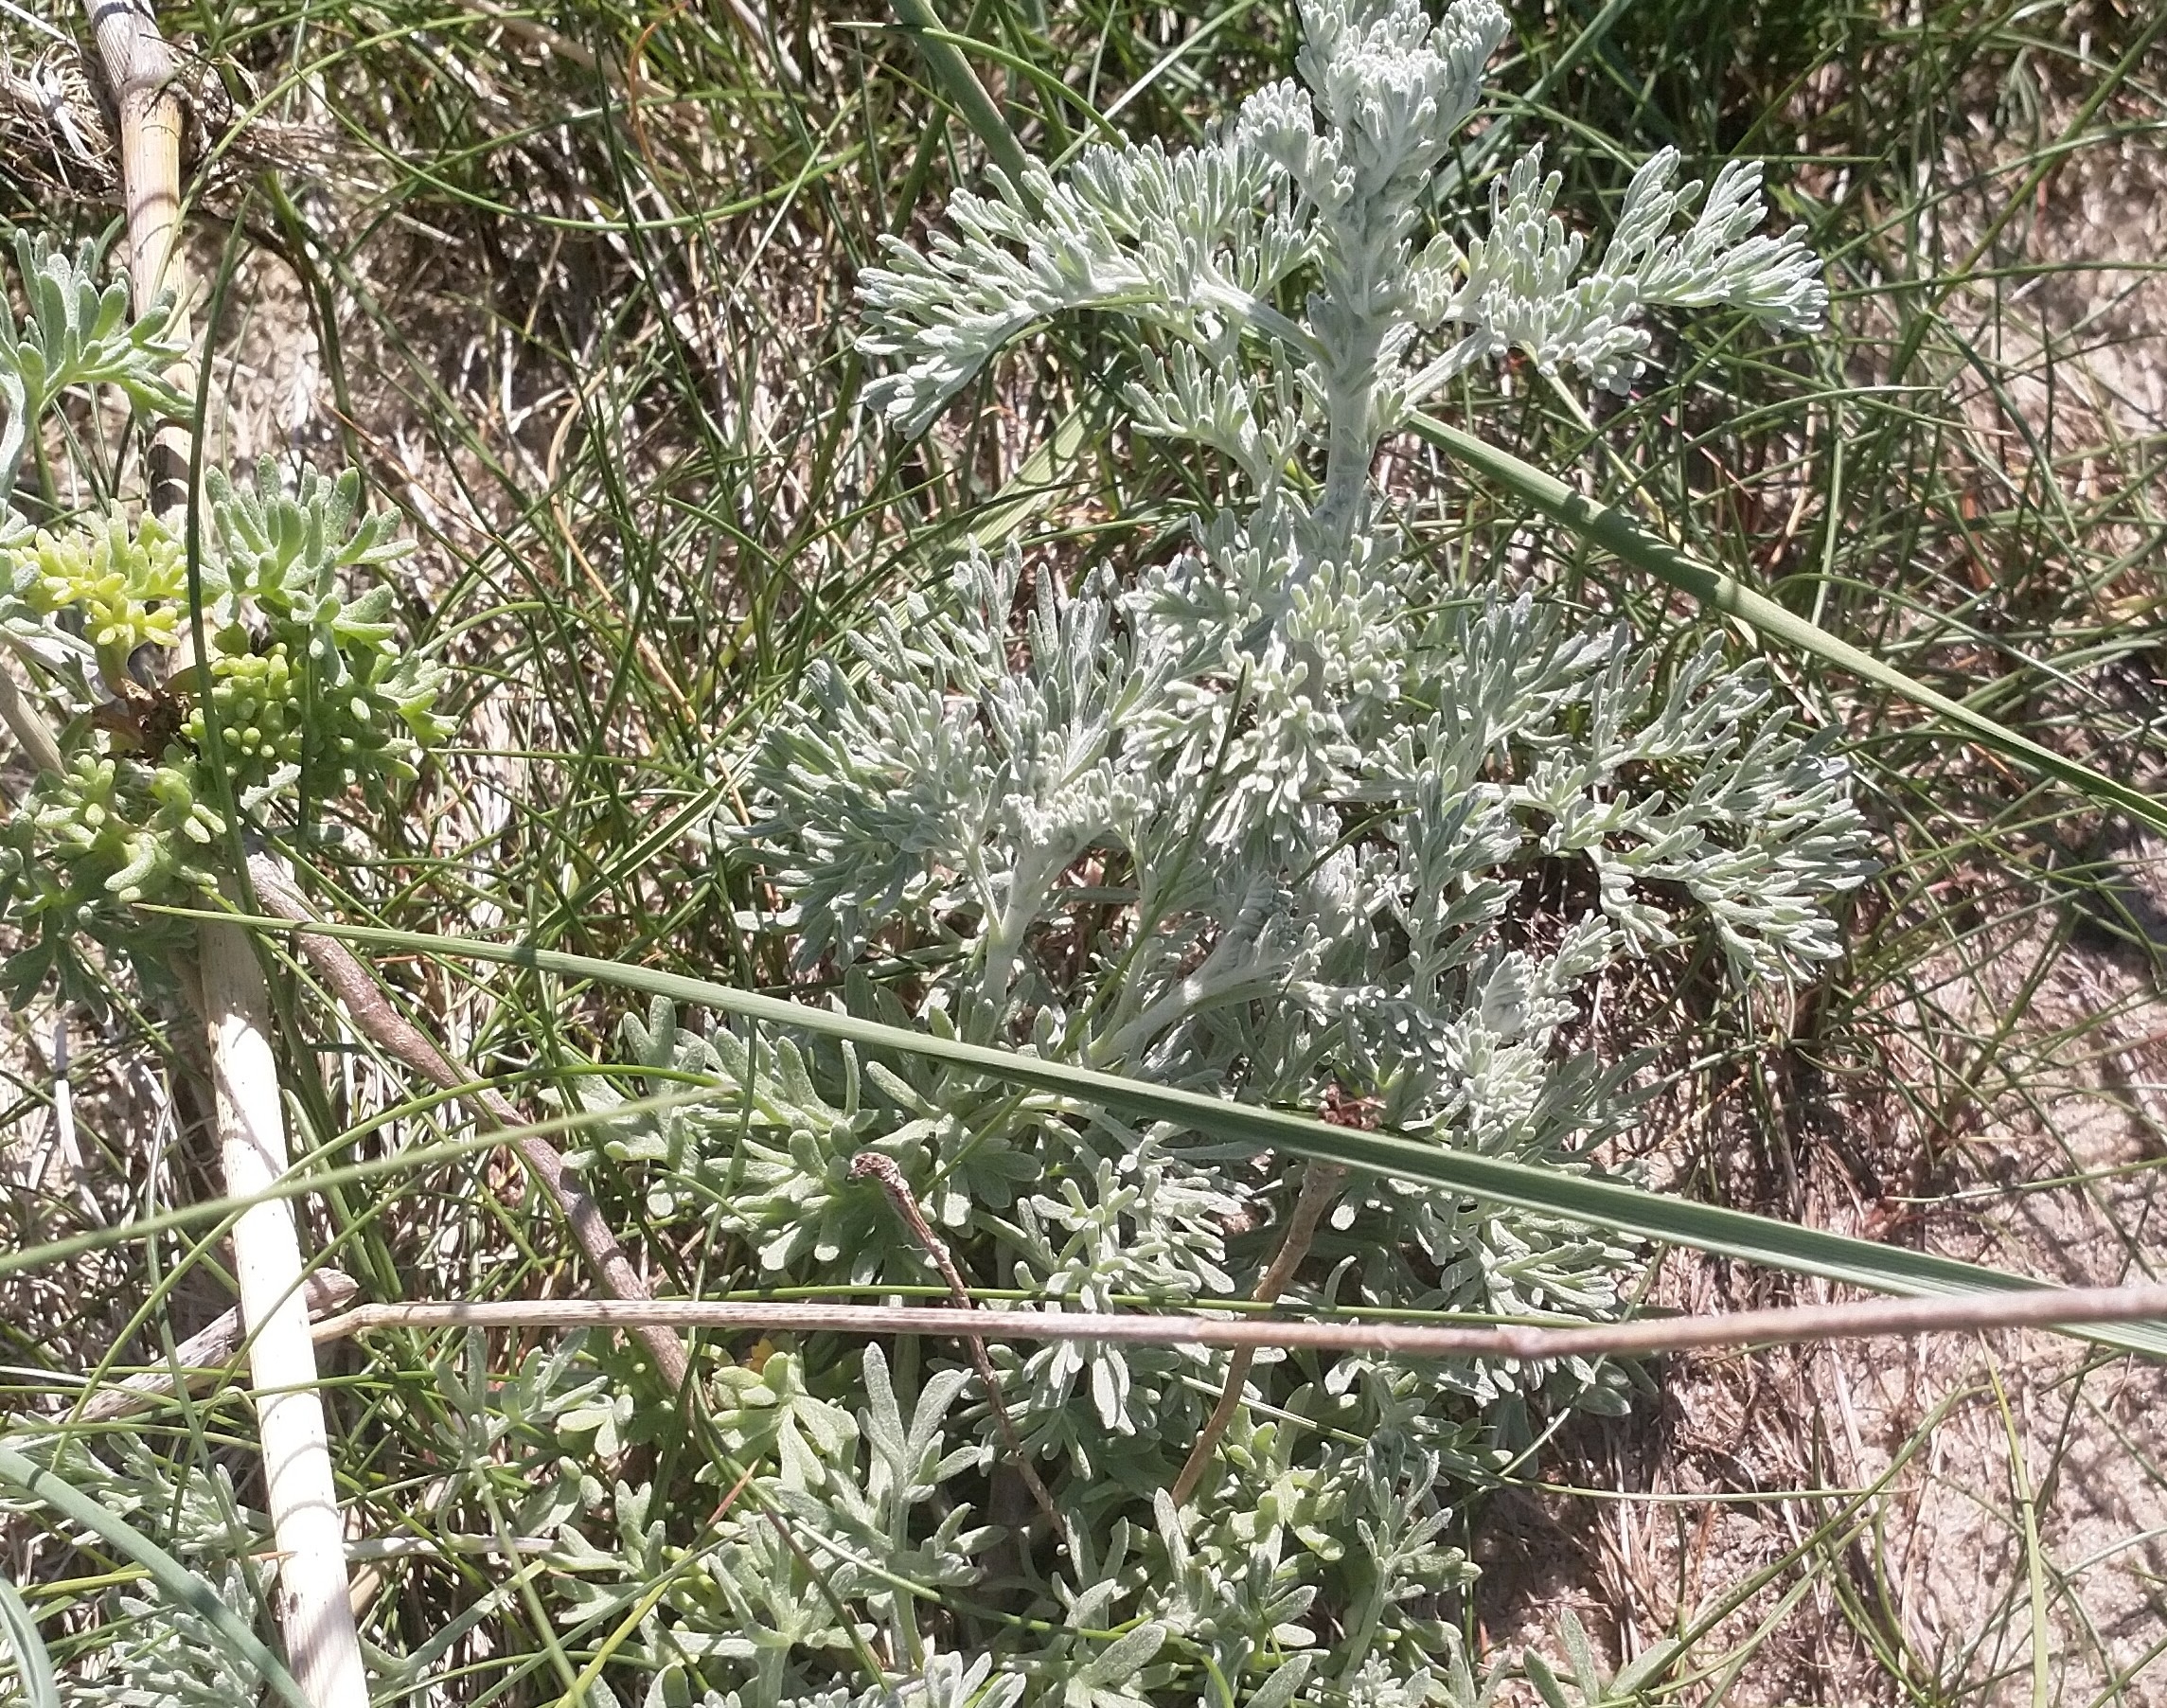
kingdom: Plantae
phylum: Tracheophyta
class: Magnoliopsida
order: Asterales
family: Asteraceae
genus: Artemisia
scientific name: Artemisia maritima
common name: Strandmalurt
